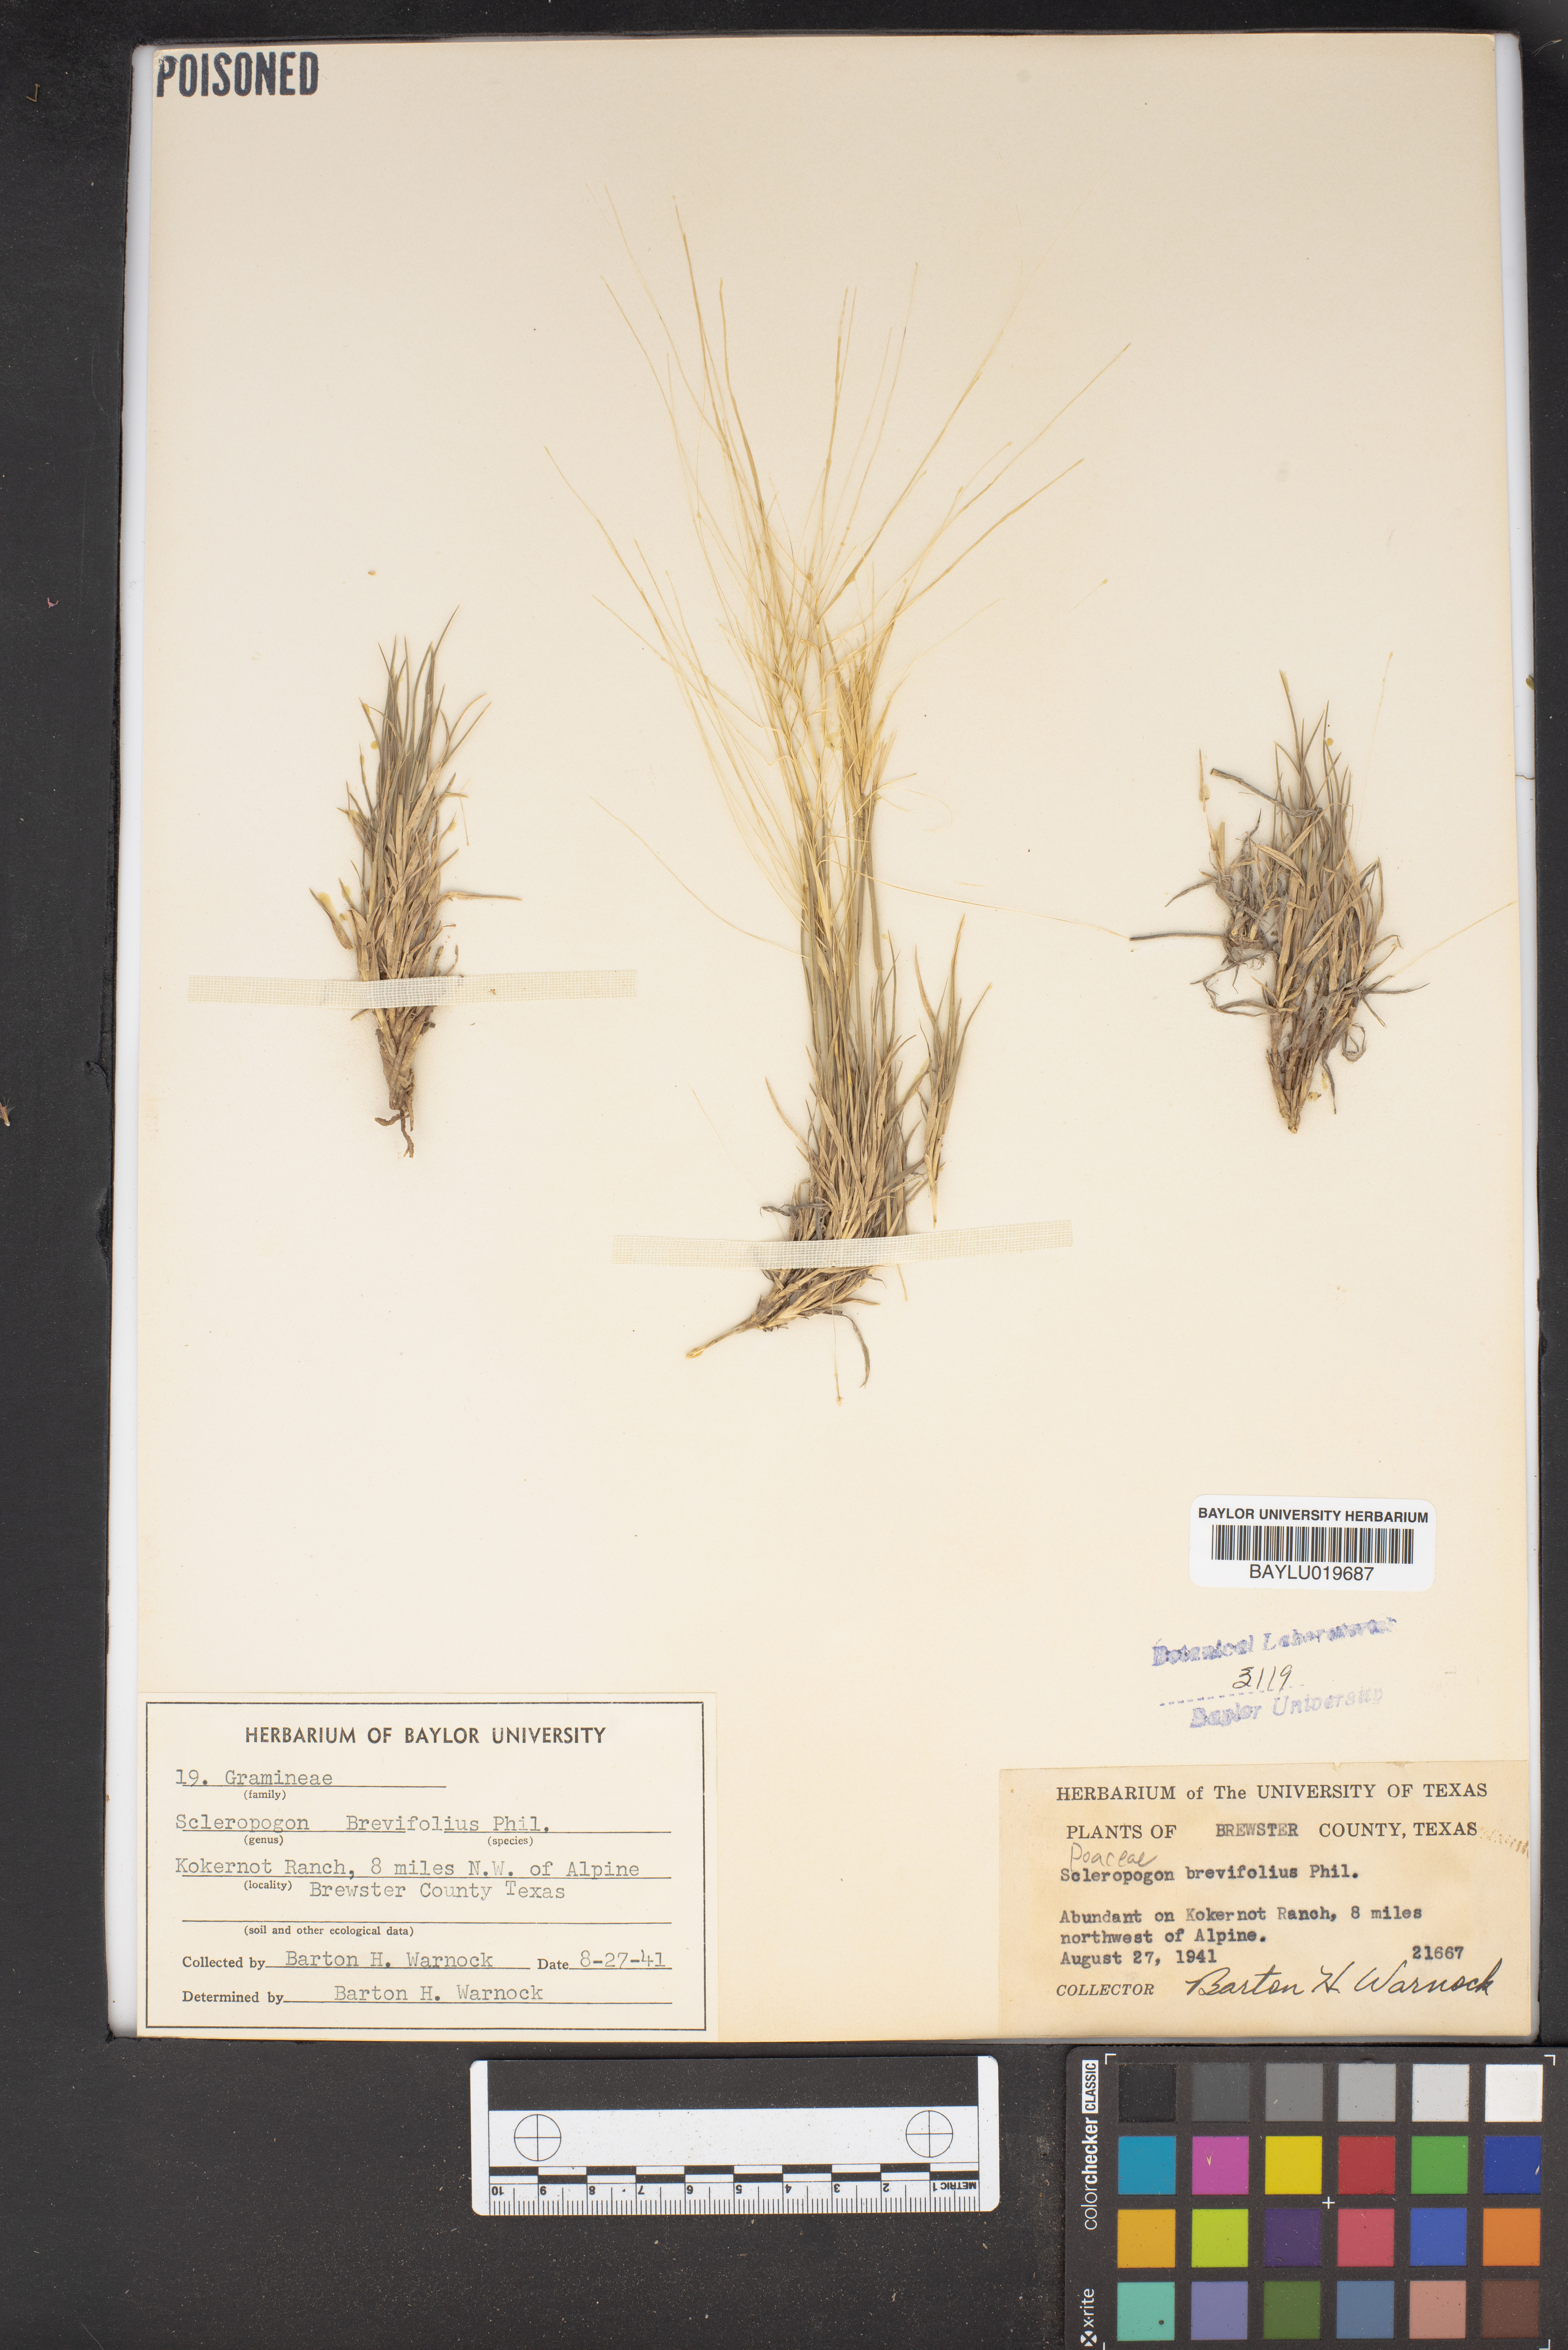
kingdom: Plantae
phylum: Tracheophyta
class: Liliopsida
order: Poales
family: Poaceae
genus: Scleropogon
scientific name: Scleropogon brevifolius
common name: Burro grass
